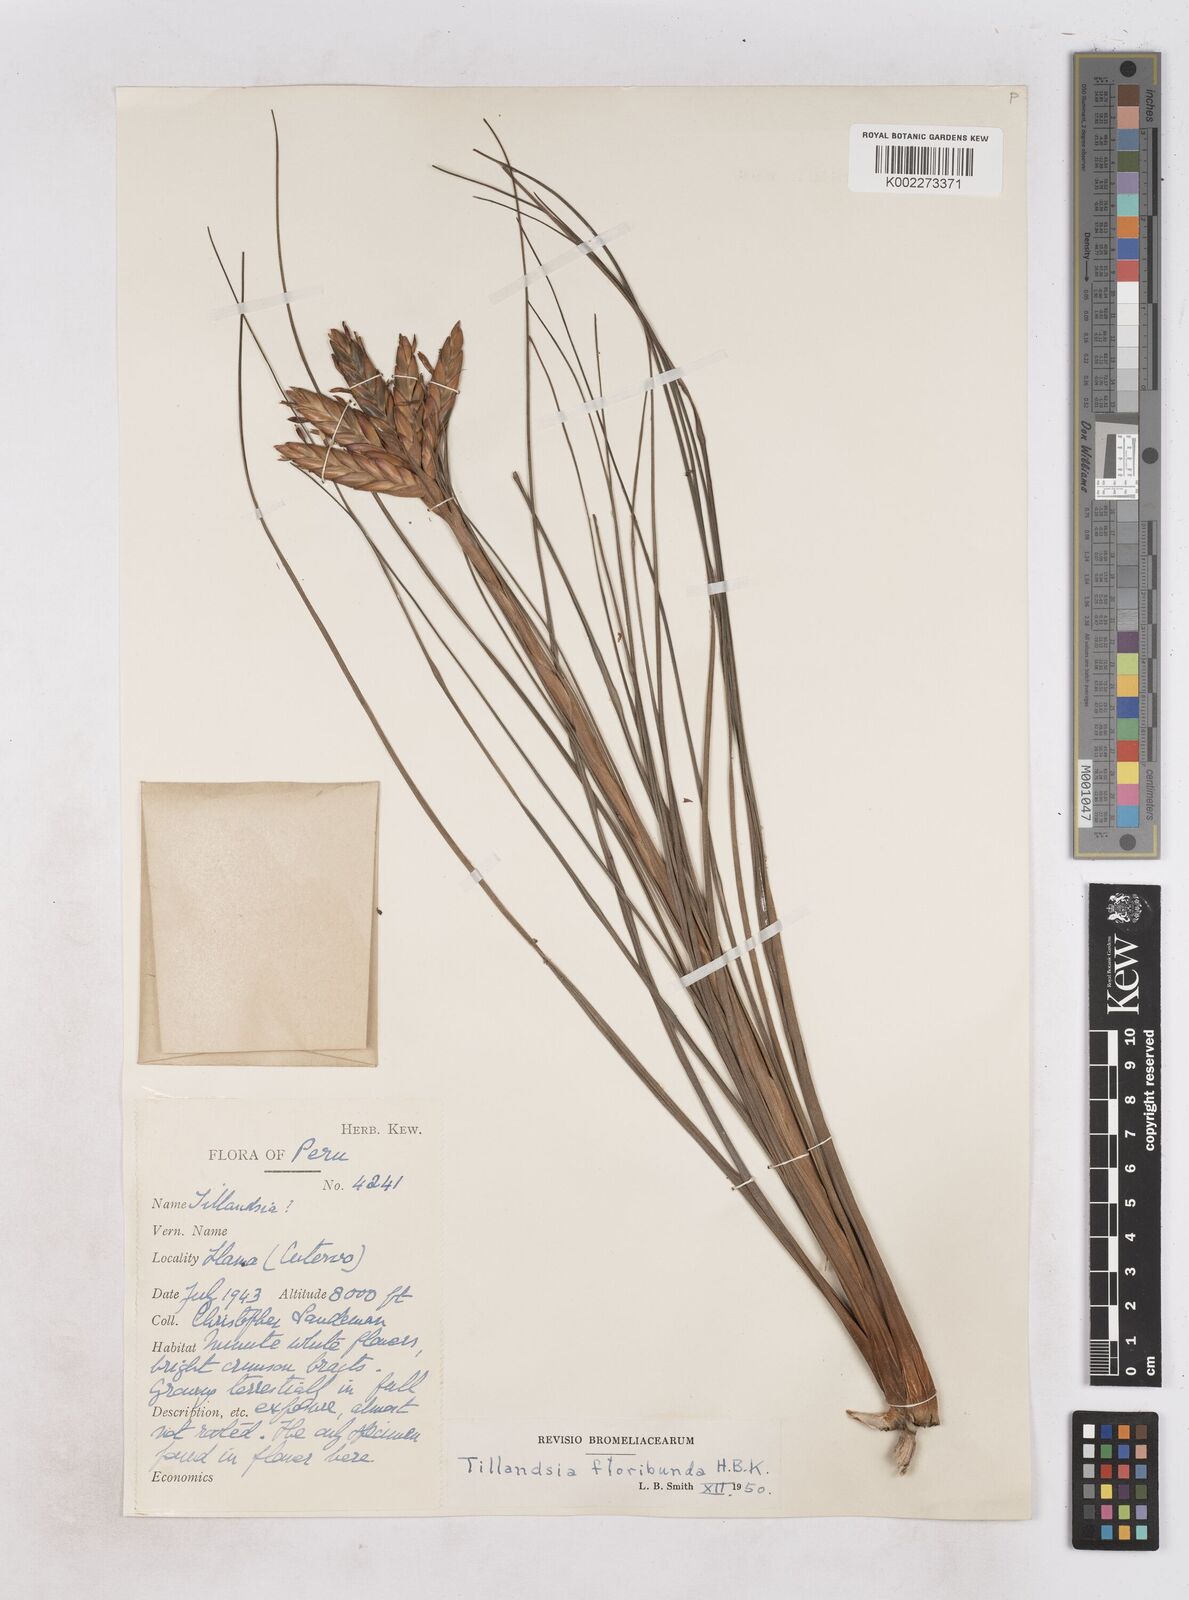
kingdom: Plantae
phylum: Tracheophyta
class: Liliopsida
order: Poales
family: Bromeliaceae
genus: Tillandsia
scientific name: Tillandsia floribunda
